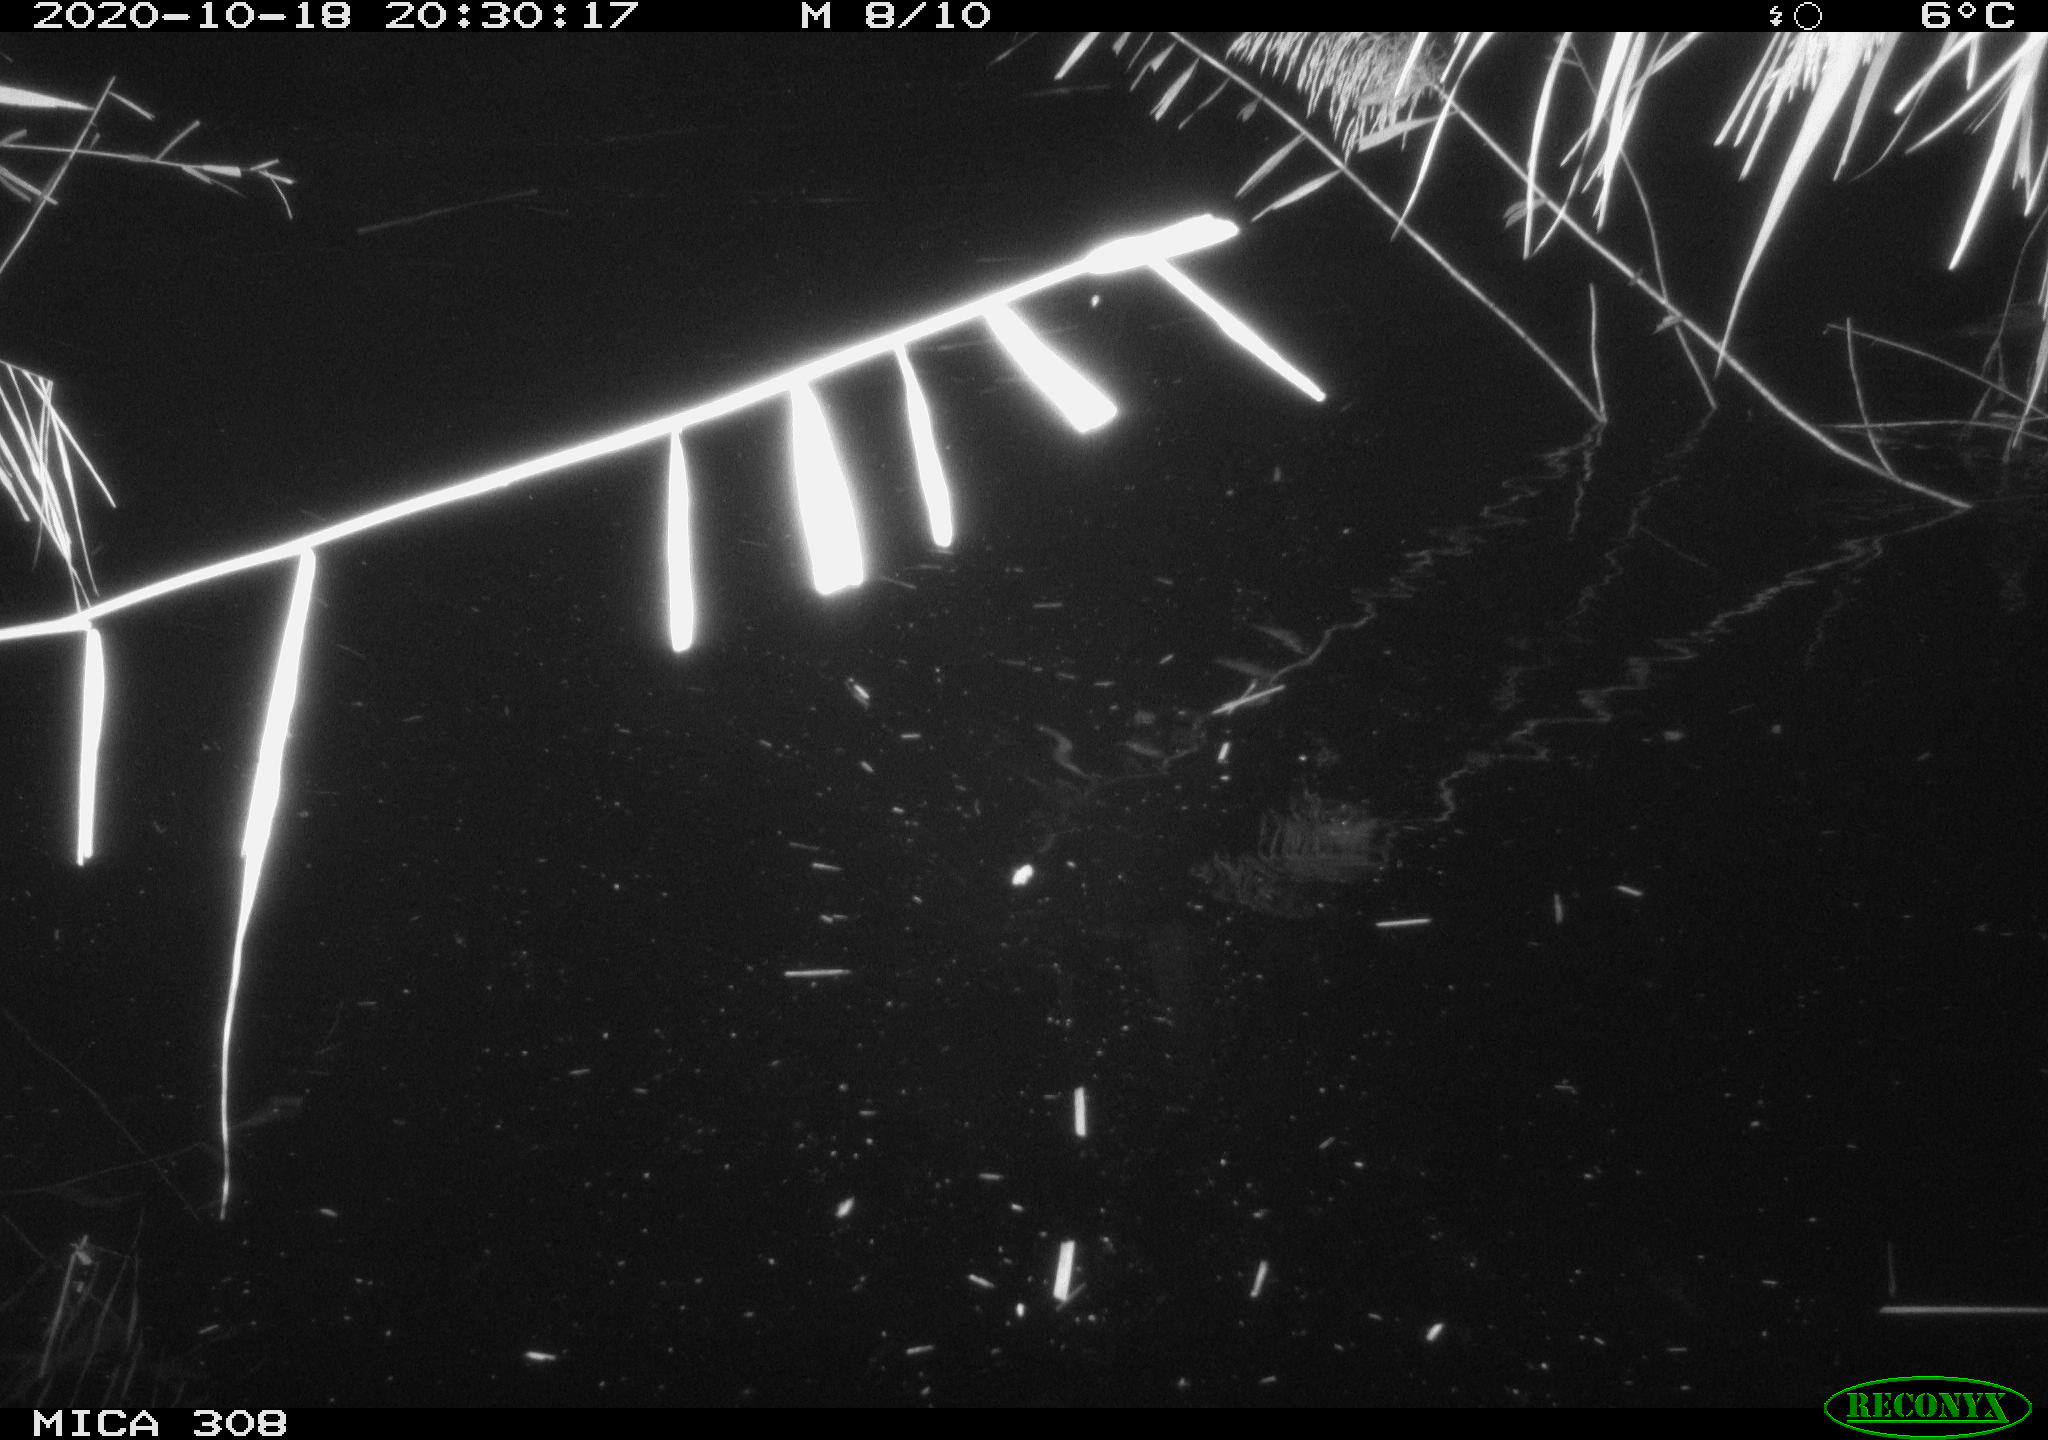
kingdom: Animalia
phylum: Chordata
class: Mammalia
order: Rodentia
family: Cricetidae
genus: Ondatra
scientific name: Ondatra zibethicus
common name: Muskrat
